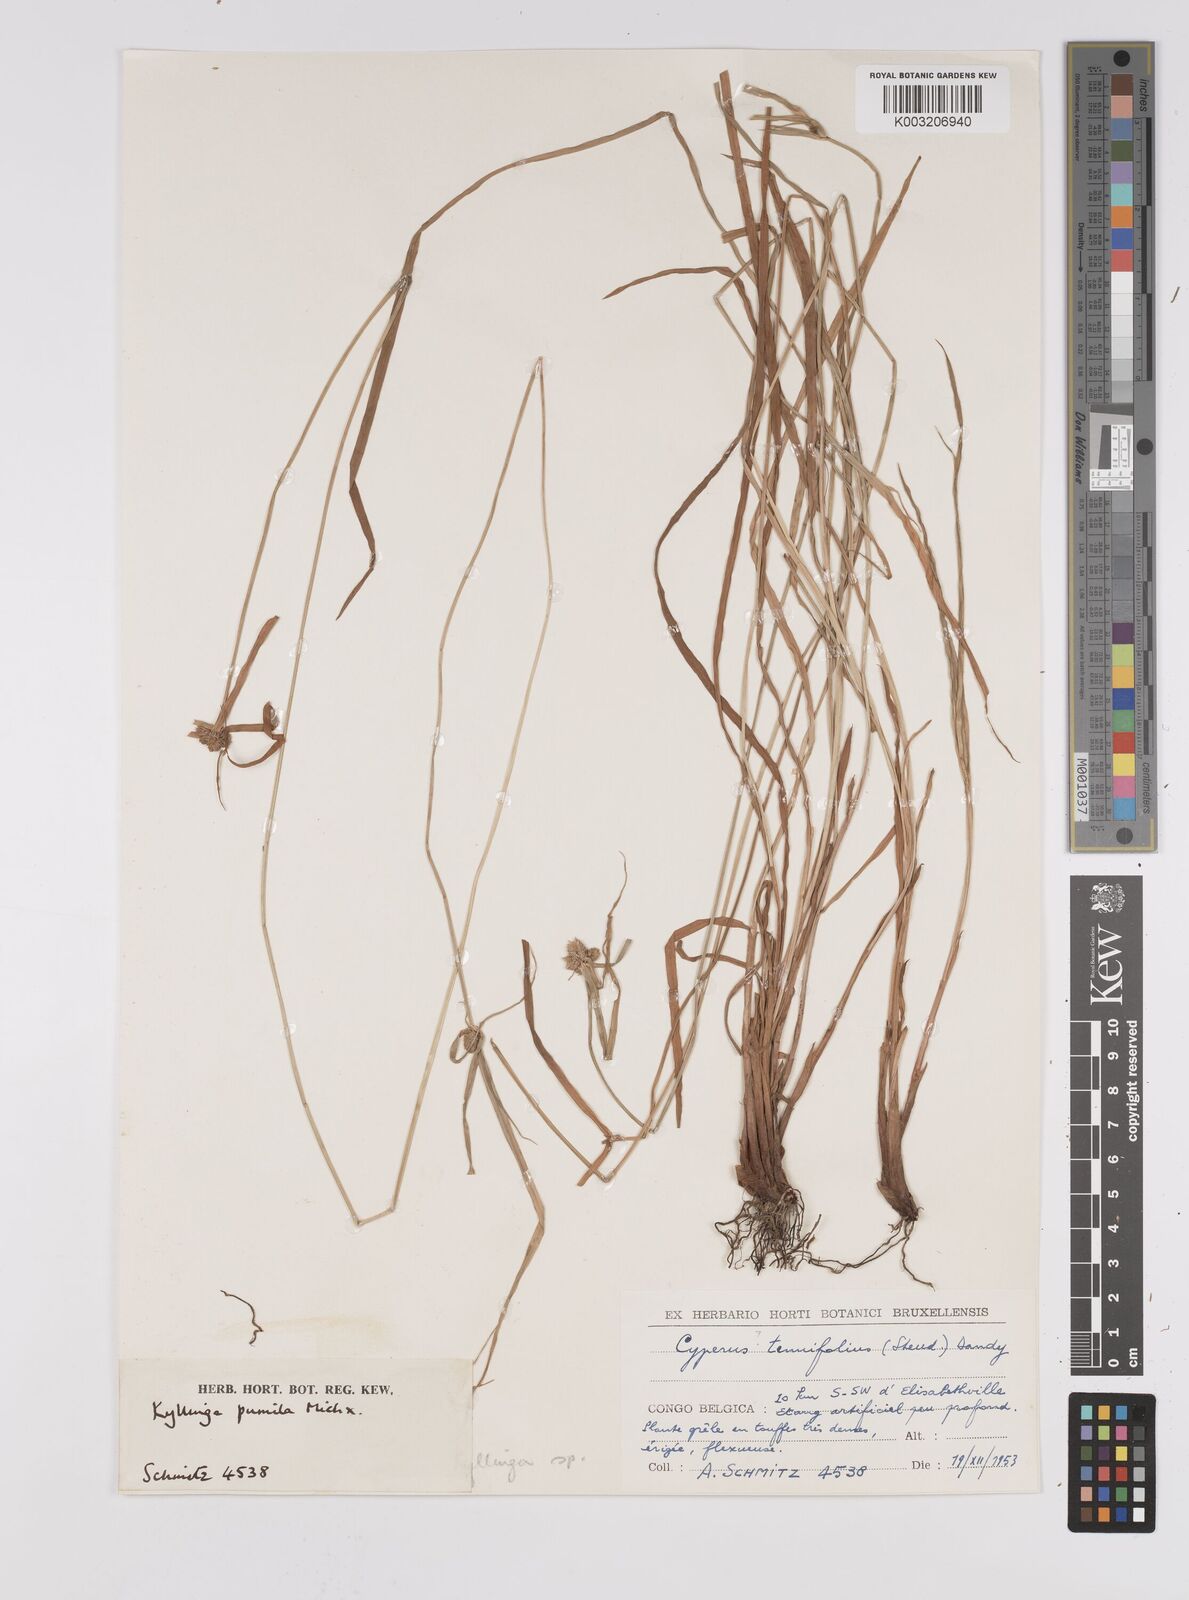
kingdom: Plantae
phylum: Tracheophyta
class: Liliopsida
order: Poales
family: Cyperaceae
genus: Cyperus
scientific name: Cyperus hortensis
